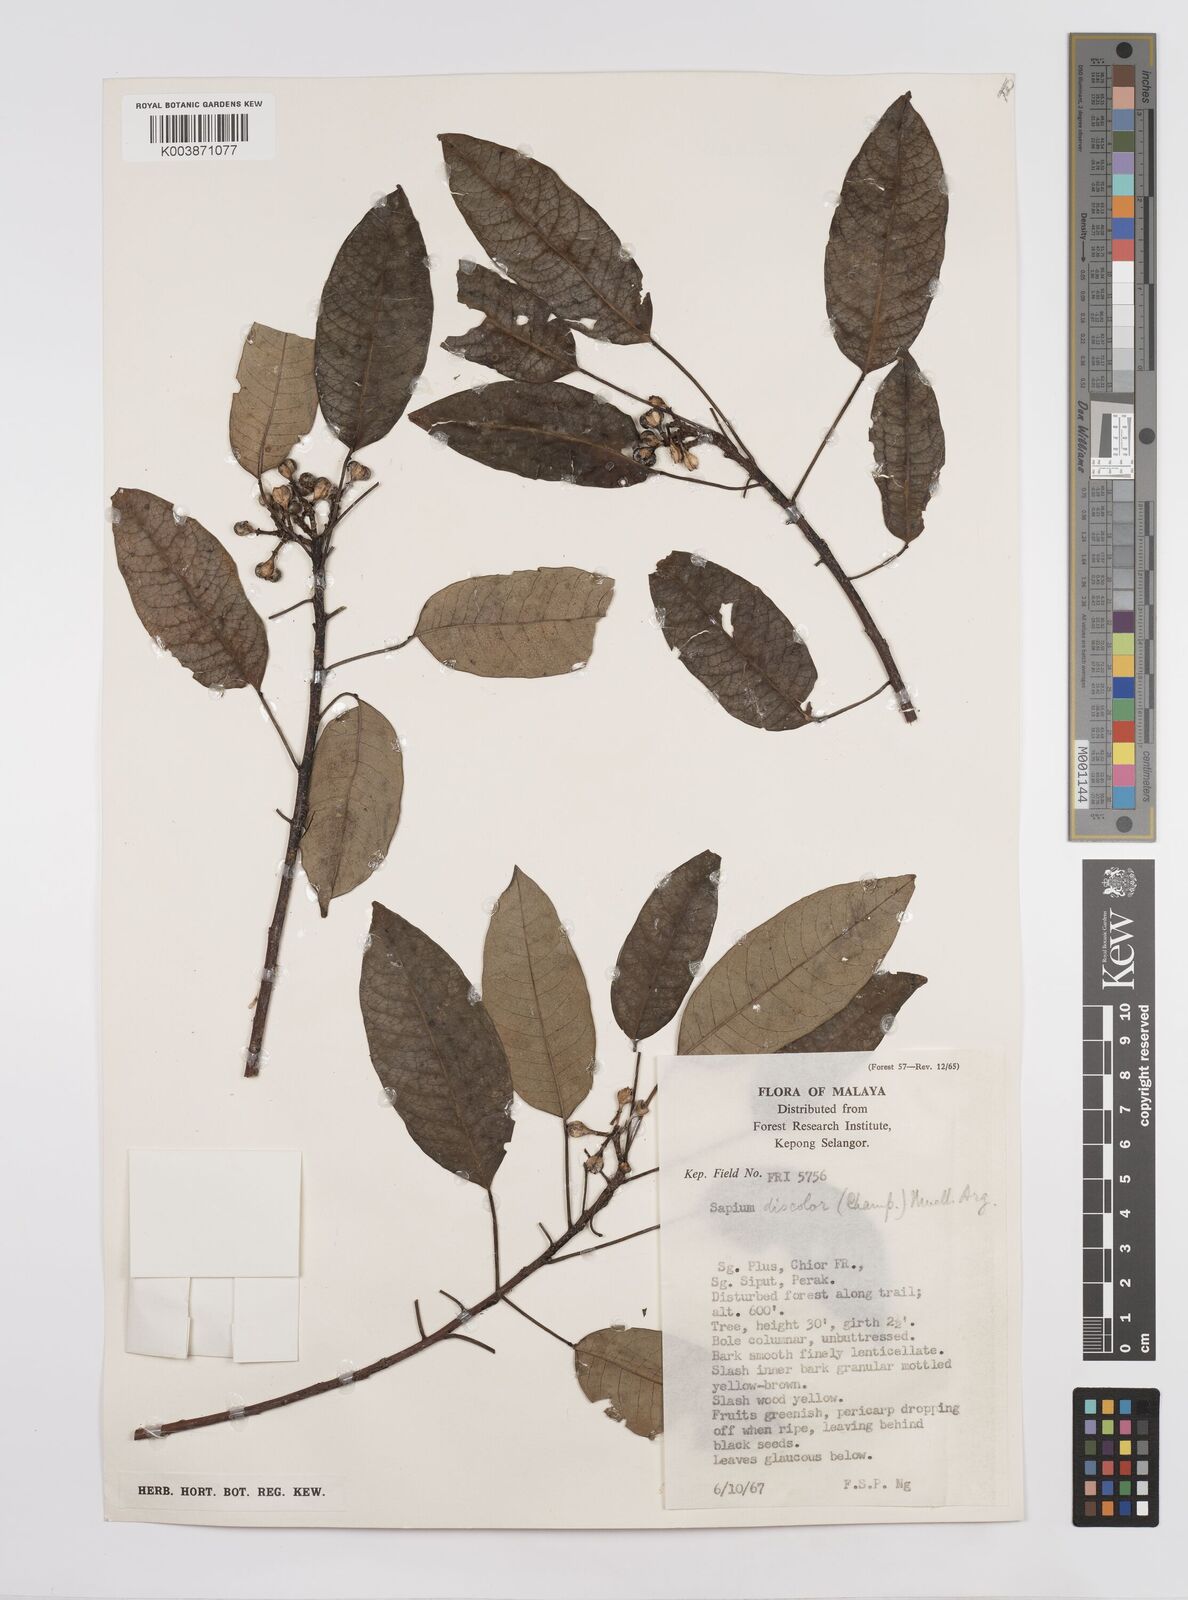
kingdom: Plantae
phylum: Tracheophyta
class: Magnoliopsida
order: Malpighiales
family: Euphorbiaceae
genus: Triadica
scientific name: Triadica cochinchinensis
